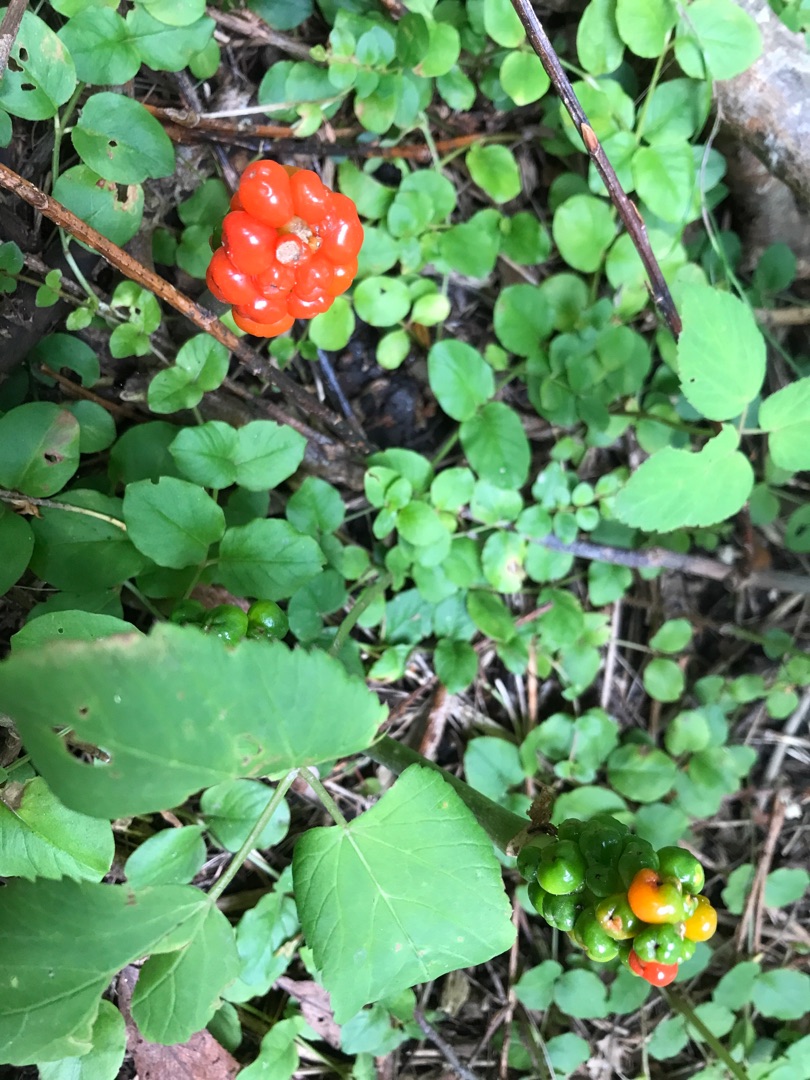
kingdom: Plantae
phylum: Tracheophyta
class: Liliopsida
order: Alismatales
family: Araceae
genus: Arum
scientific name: Arum maculatum
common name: Plettet arum
